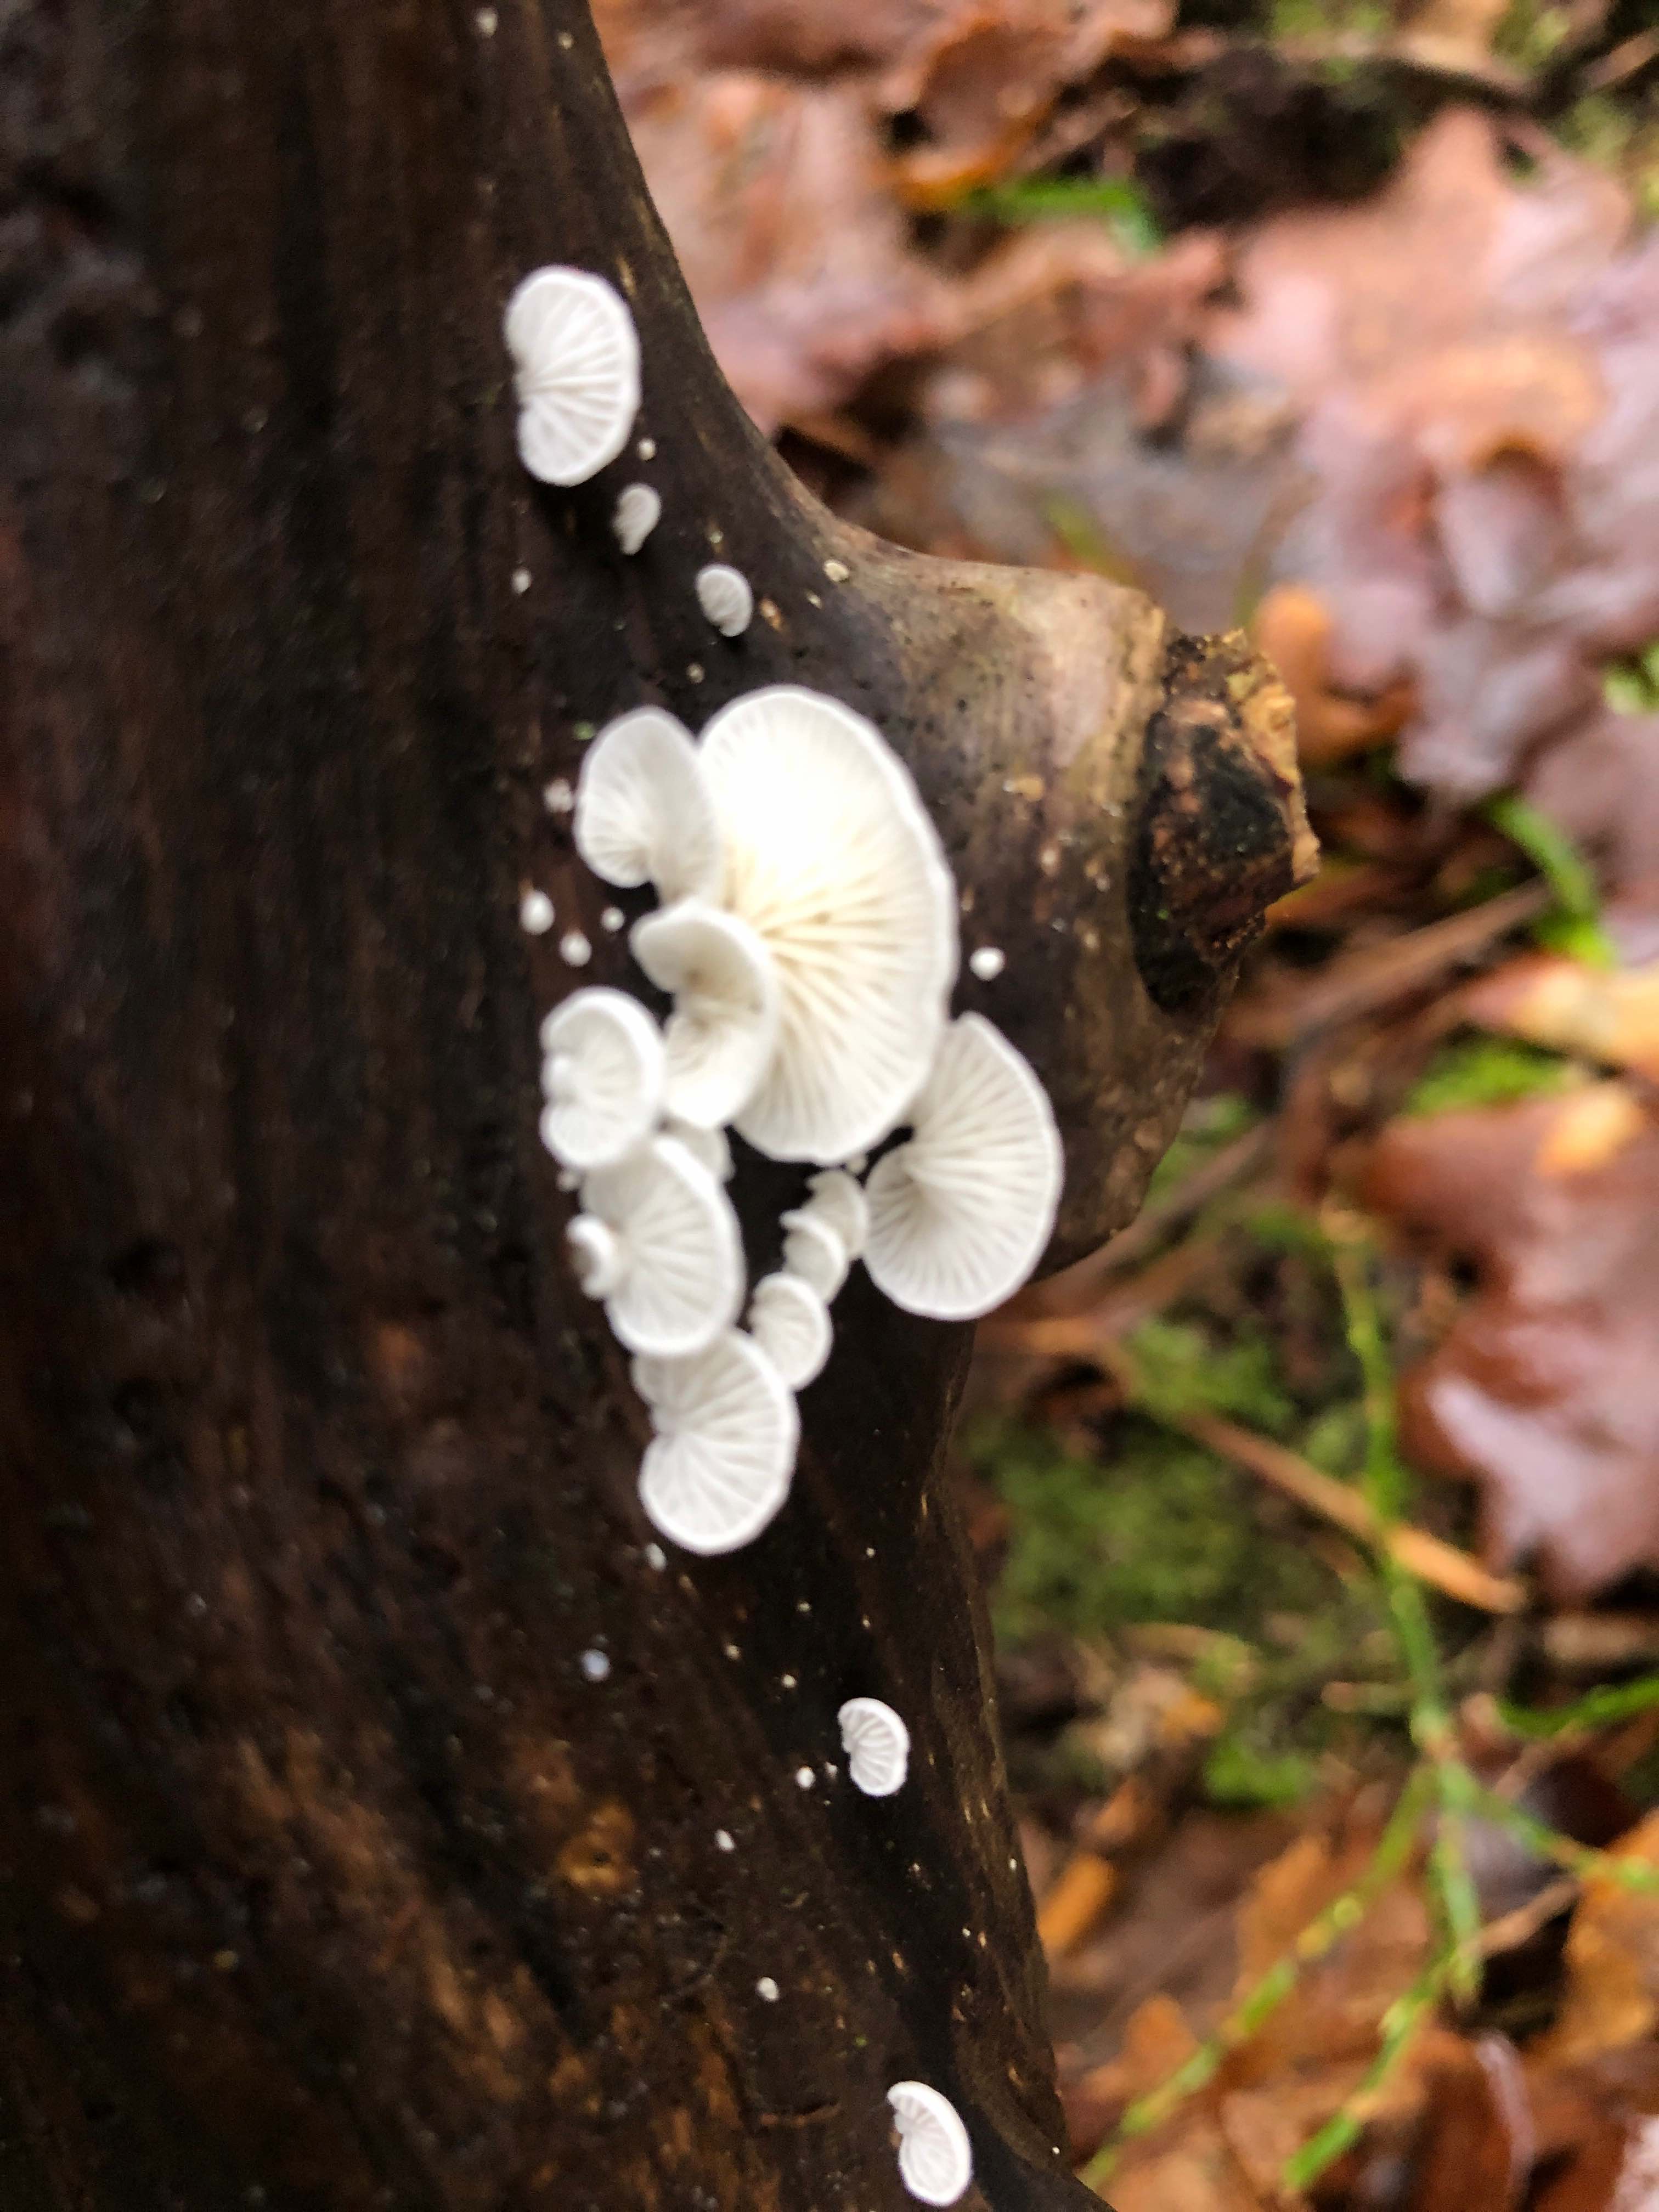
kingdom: Fungi
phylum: Basidiomycota
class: Agaricomycetes
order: Agaricales
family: Cyphellaceae
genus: Cheimonophyllum
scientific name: Cheimonophyllum
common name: vifteblad
